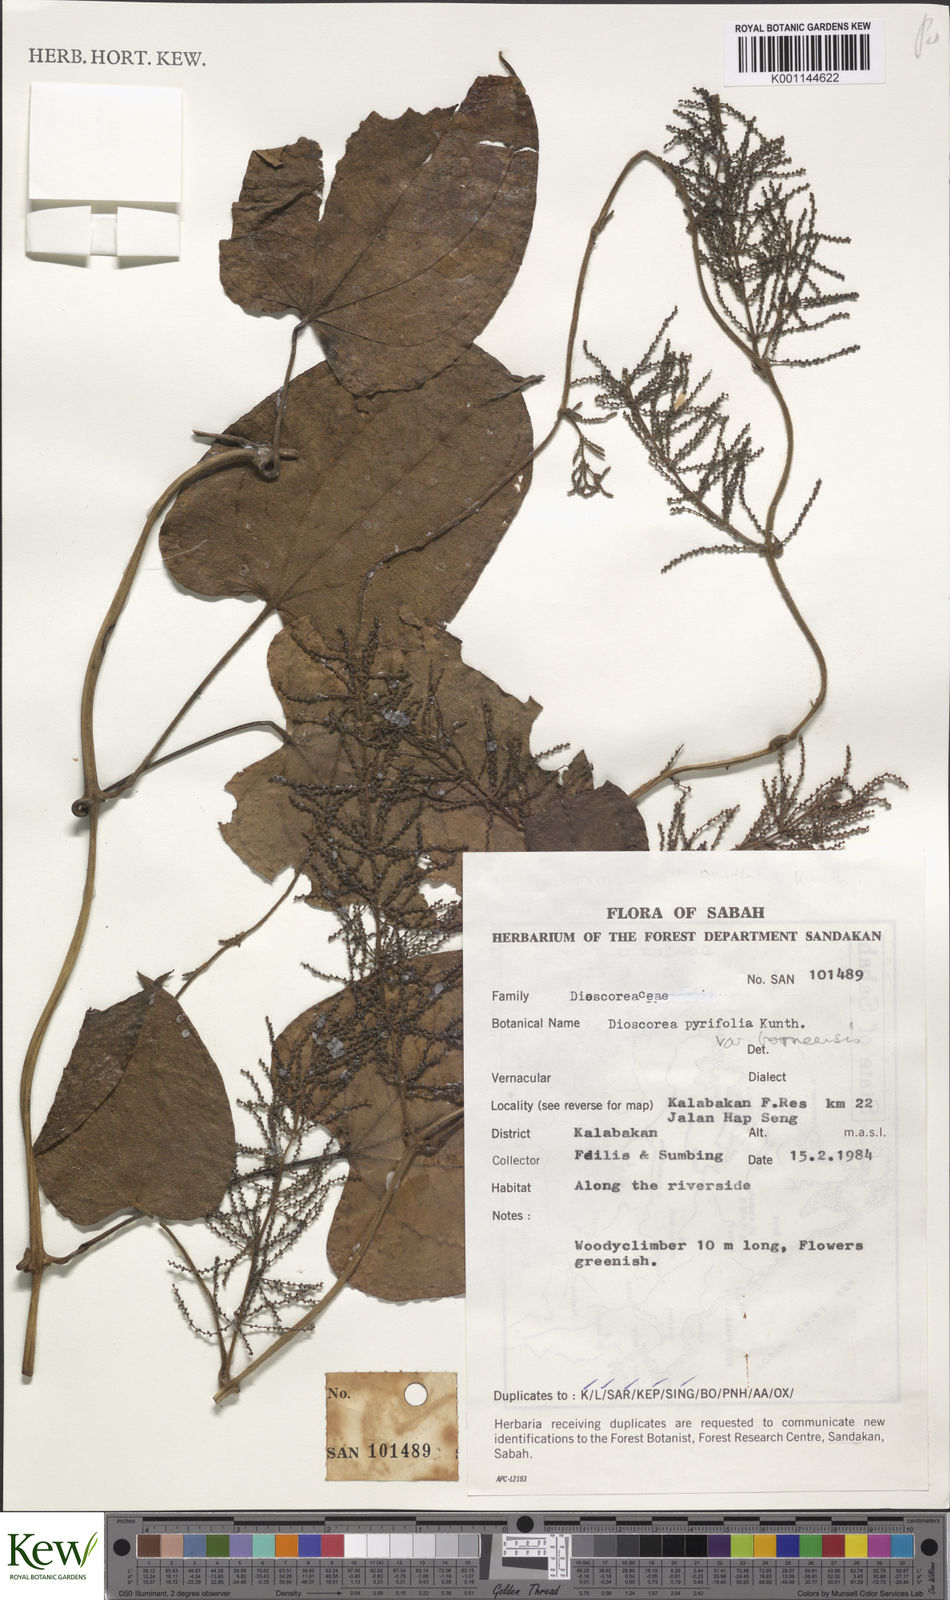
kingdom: Plantae
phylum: Tracheophyta
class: Liliopsida
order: Dioscoreales
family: Dioscoreaceae
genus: Dioscorea
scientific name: Dioscorea pyrifolia
